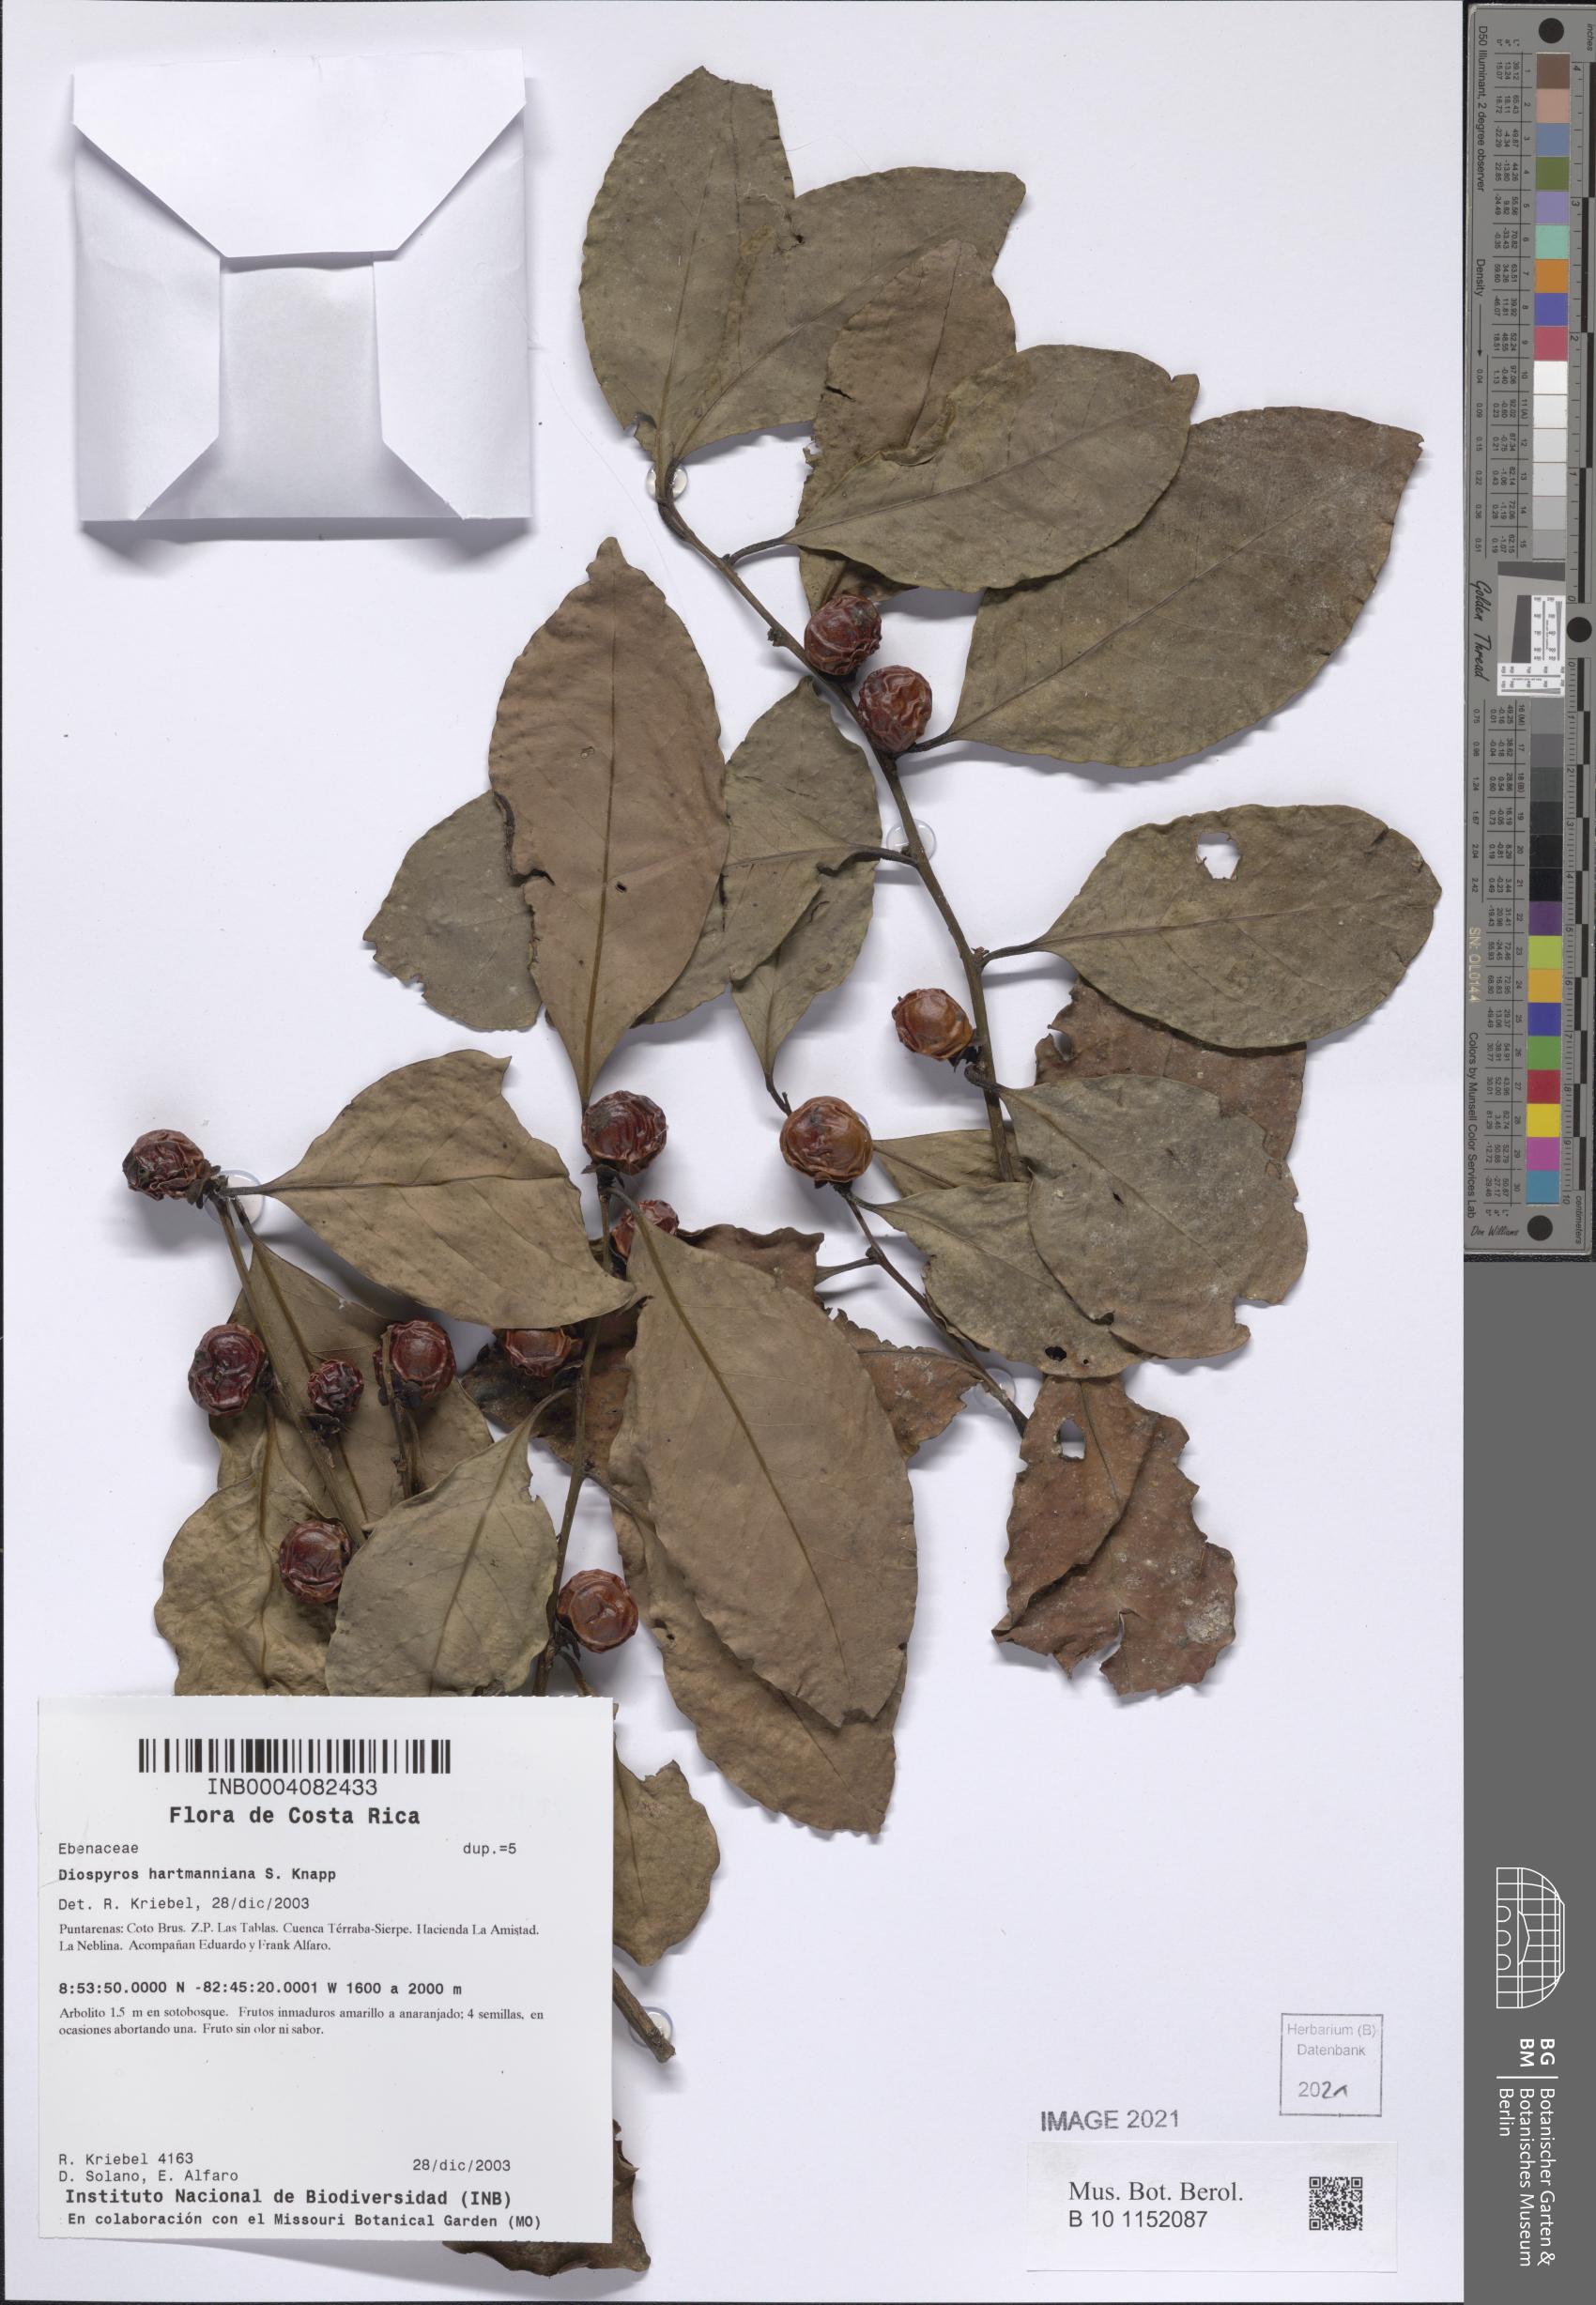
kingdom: Plantae
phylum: Tracheophyta
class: Magnoliopsida
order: Ericales
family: Ebenaceae
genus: Diospyros
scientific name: Diospyros juruensis
